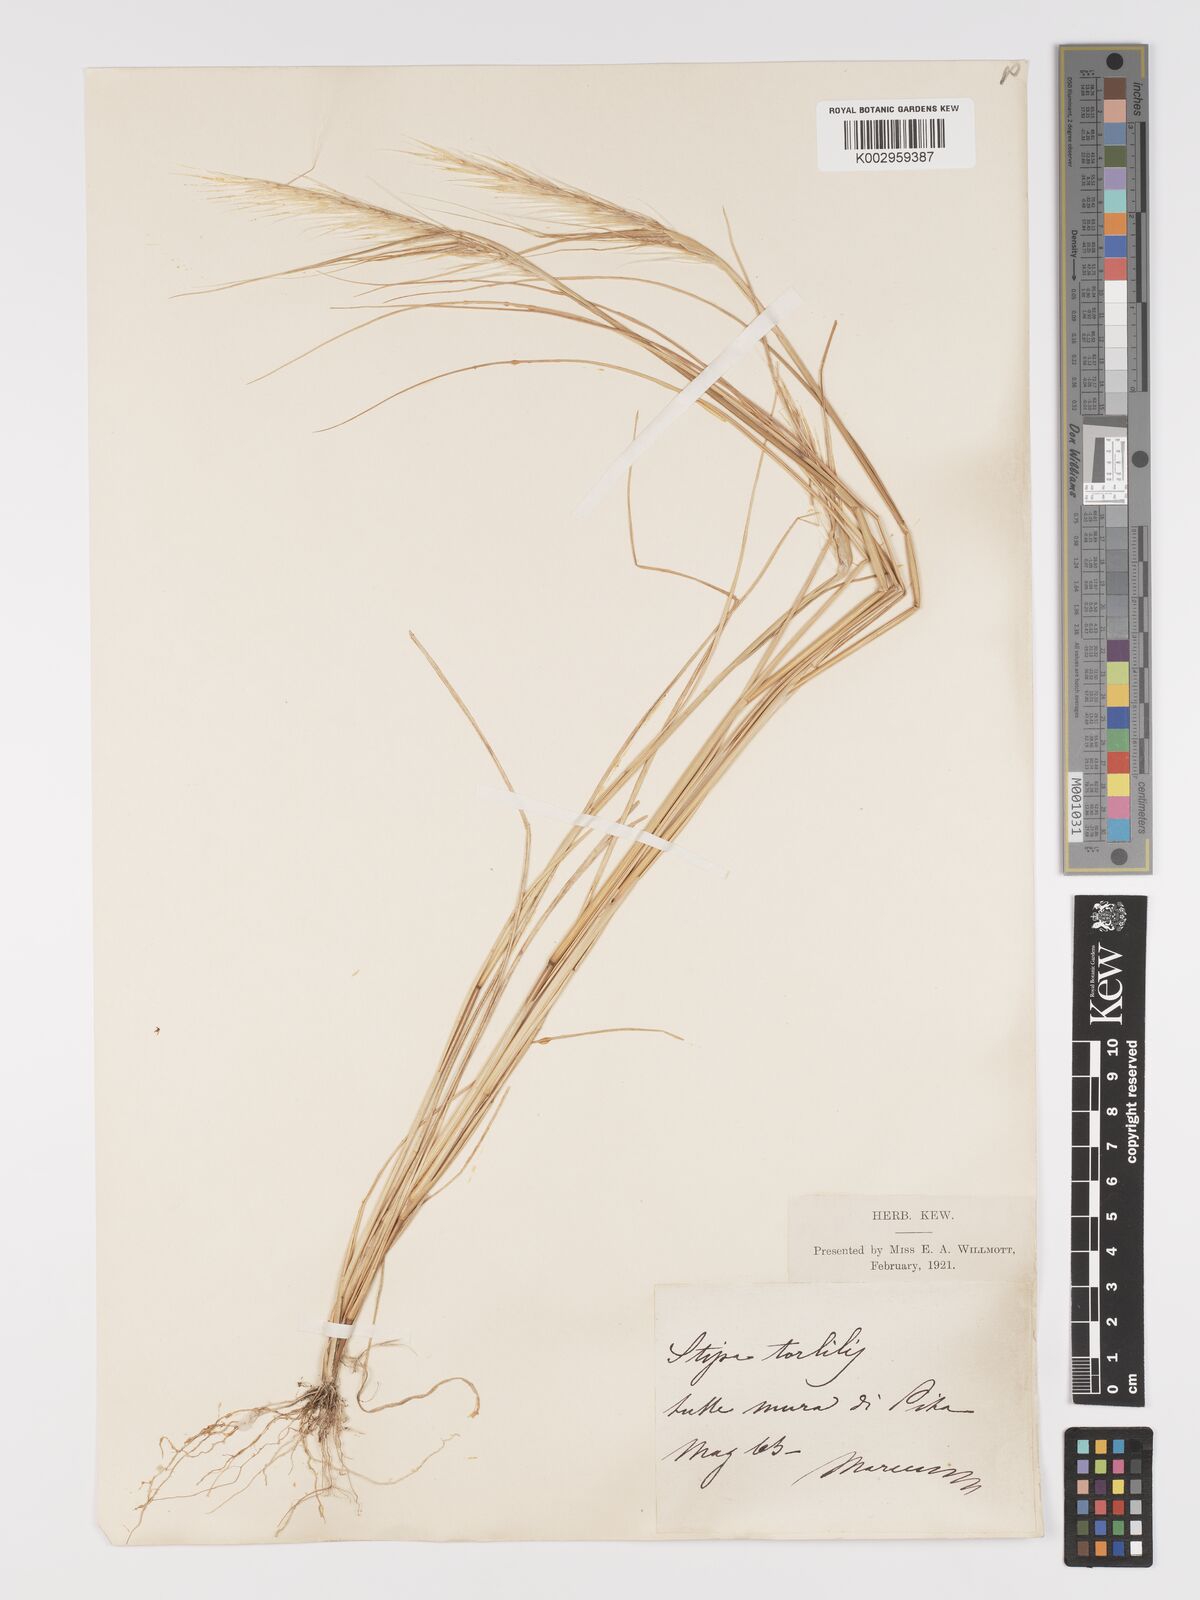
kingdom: Plantae
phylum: Tracheophyta
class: Liliopsida
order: Poales
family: Poaceae
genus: Stipellula
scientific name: Stipellula capensis
